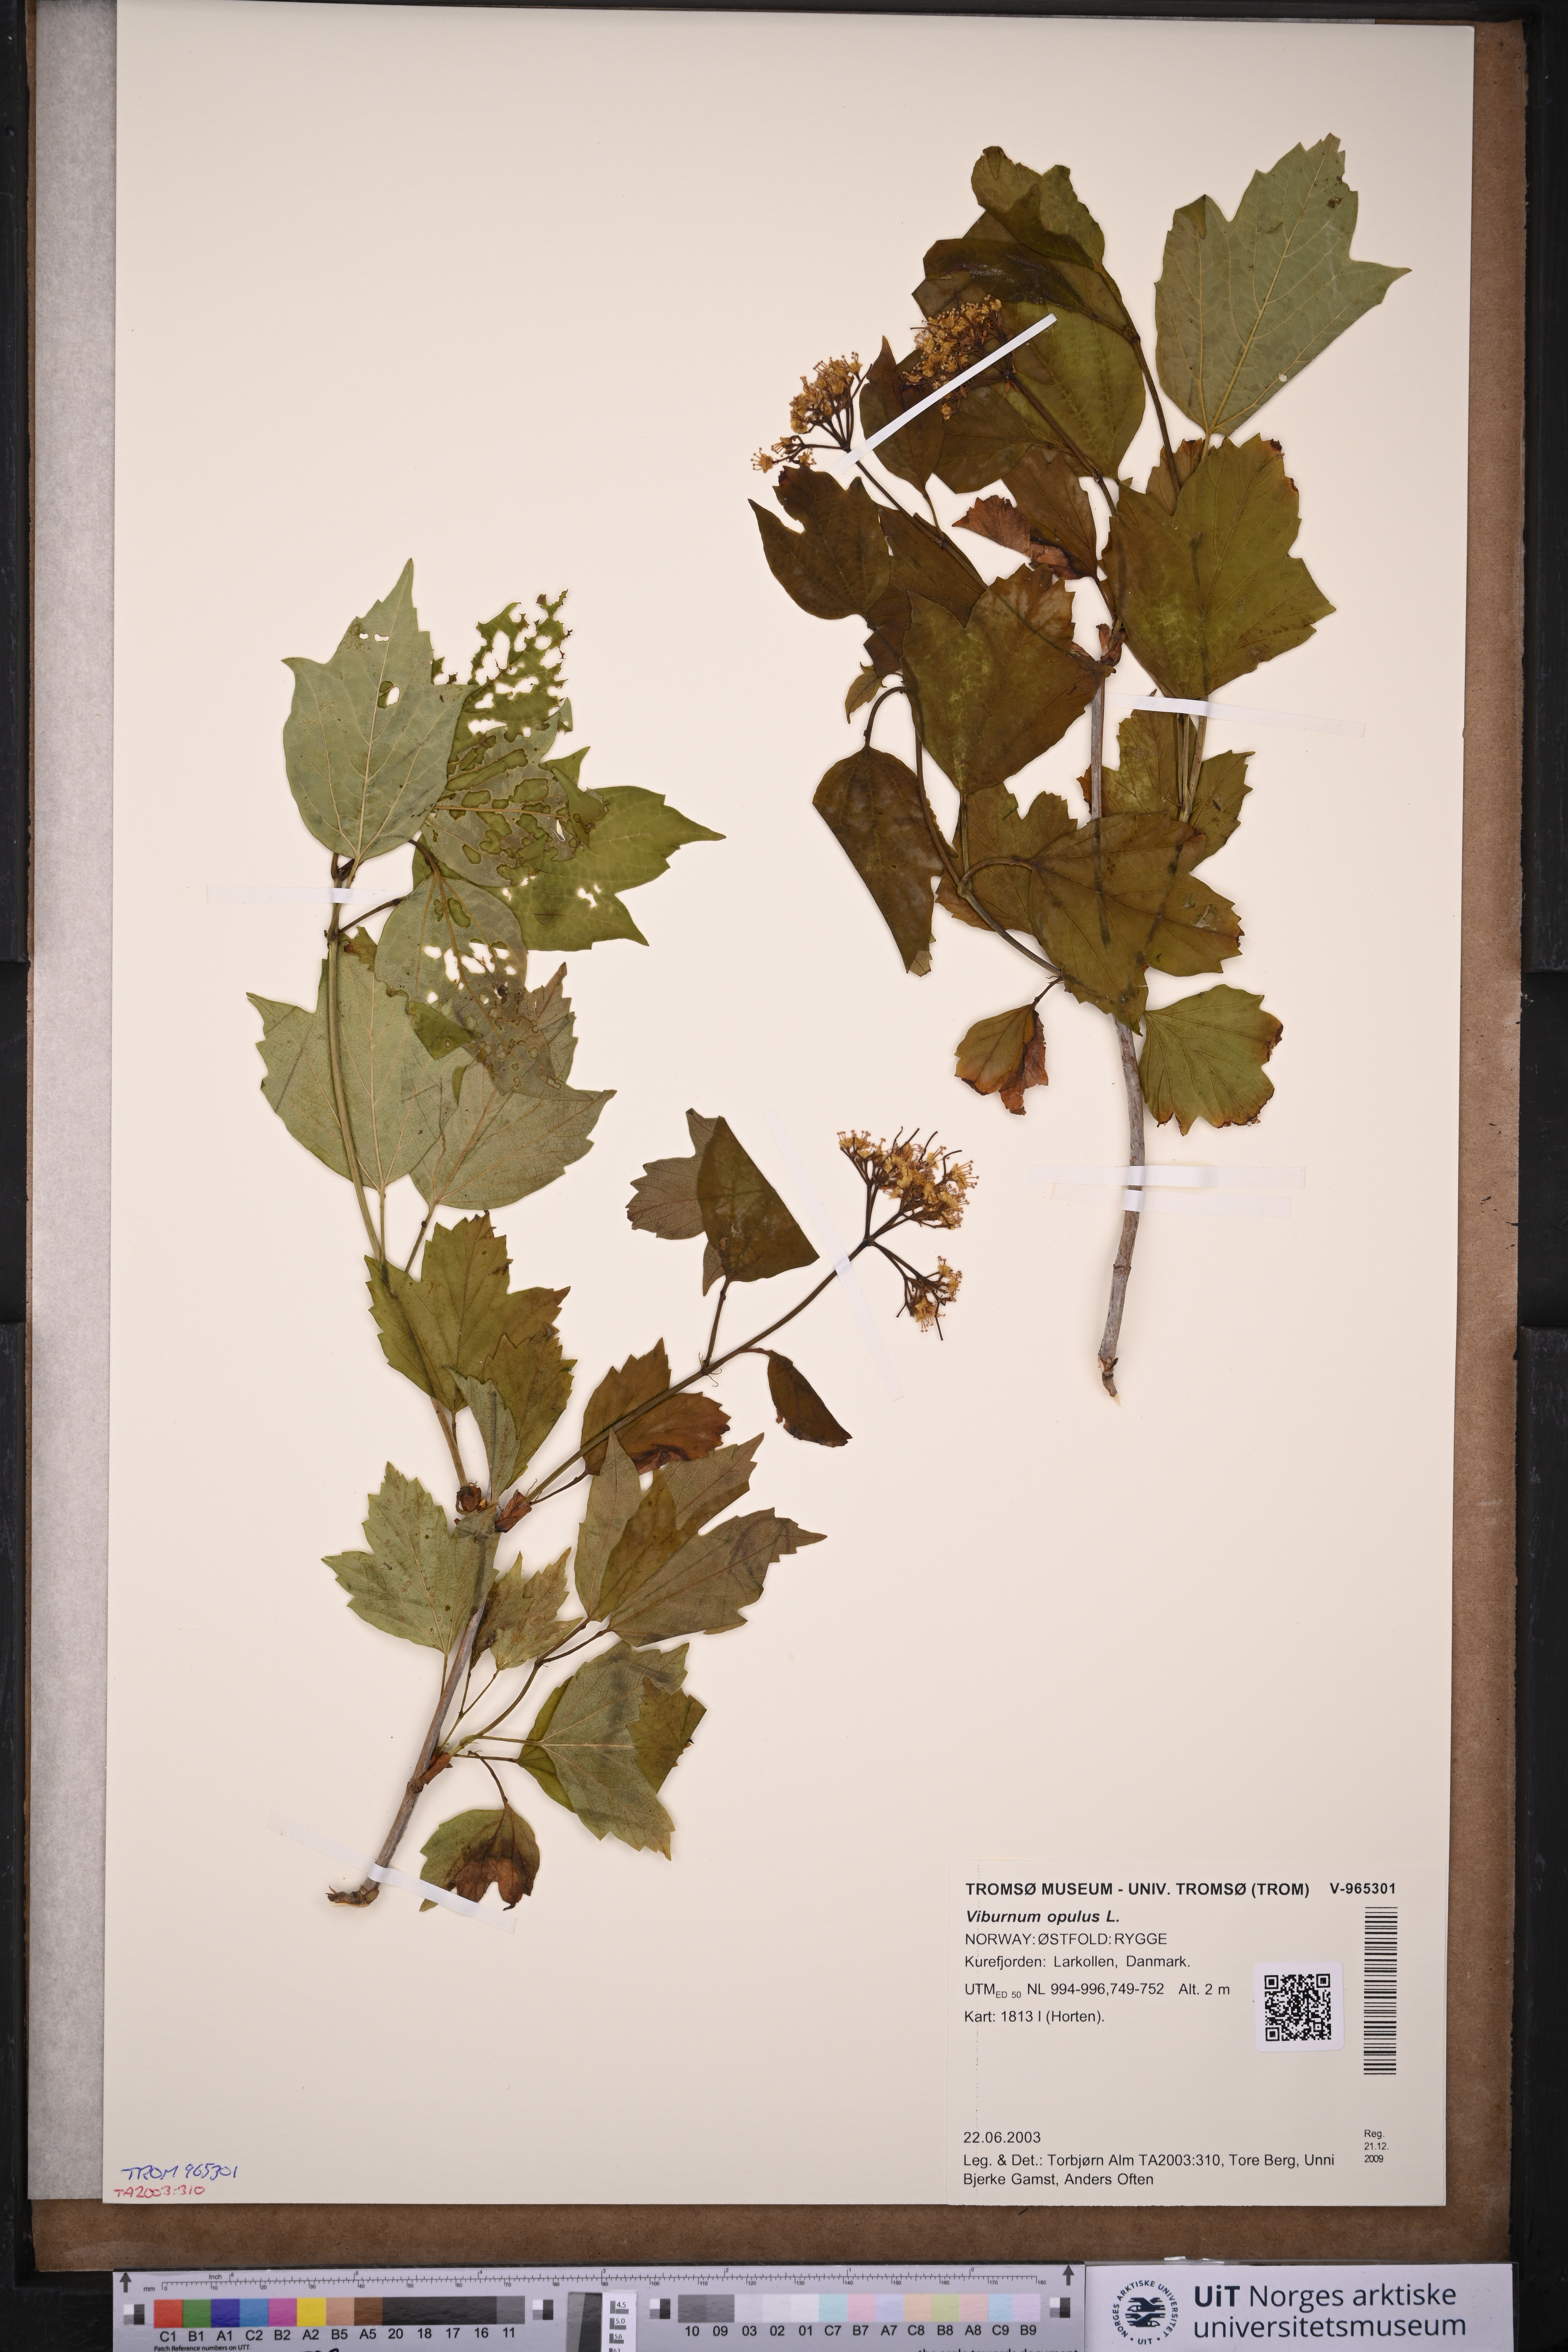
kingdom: Plantae
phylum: Tracheophyta
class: Magnoliopsida
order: Dipsacales
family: Viburnaceae
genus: Viburnum
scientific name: Viburnum opulus
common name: Guelder-rose
